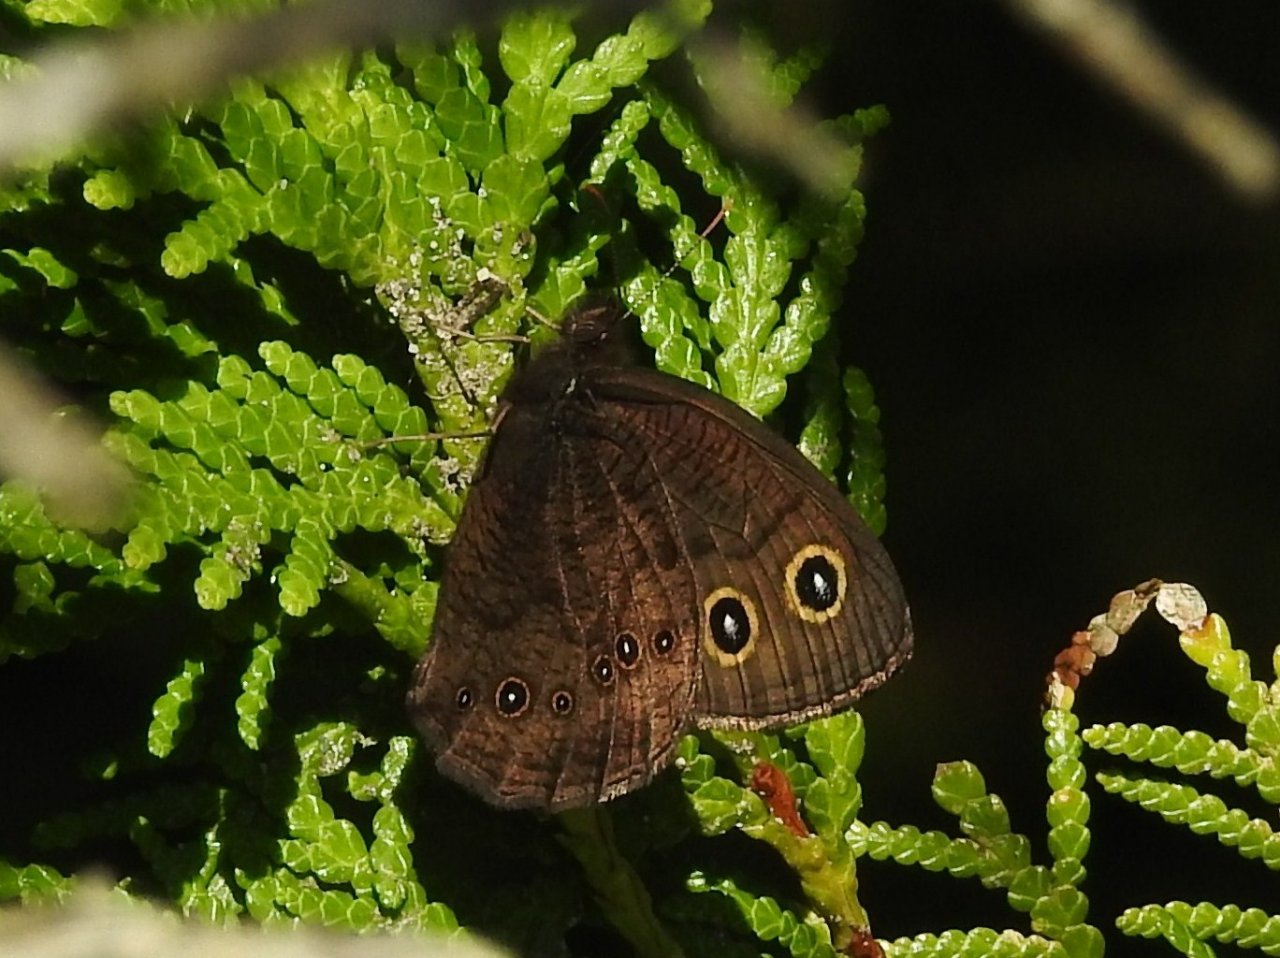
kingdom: Animalia
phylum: Arthropoda
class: Insecta
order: Lepidoptera
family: Nymphalidae
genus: Cercyonis
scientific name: Cercyonis pegala
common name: Common Wood-Nymph
